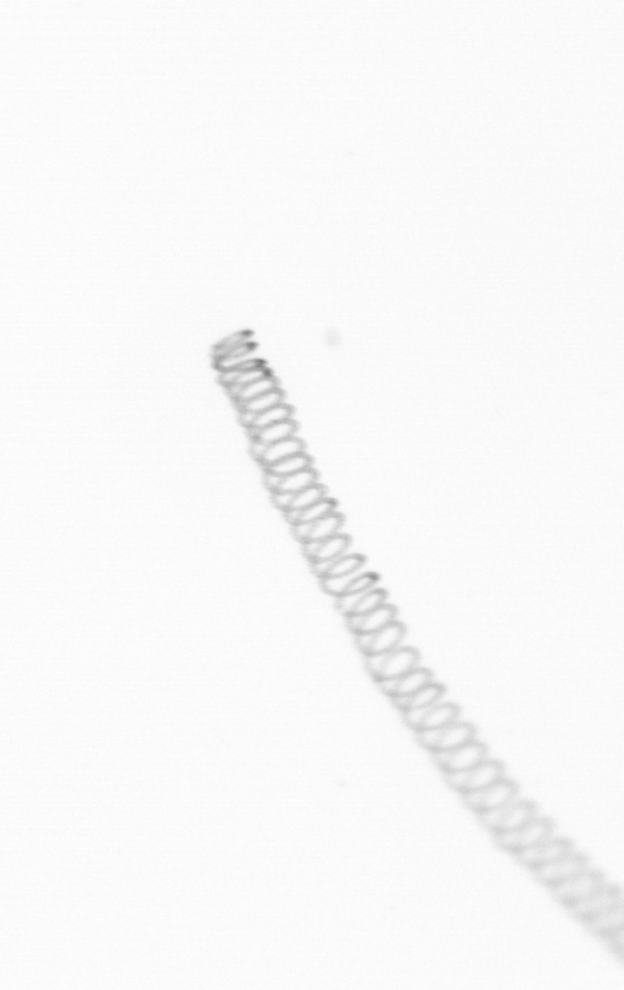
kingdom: Chromista
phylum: Ochrophyta
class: Bacillariophyceae
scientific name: Bacillariophyceae
